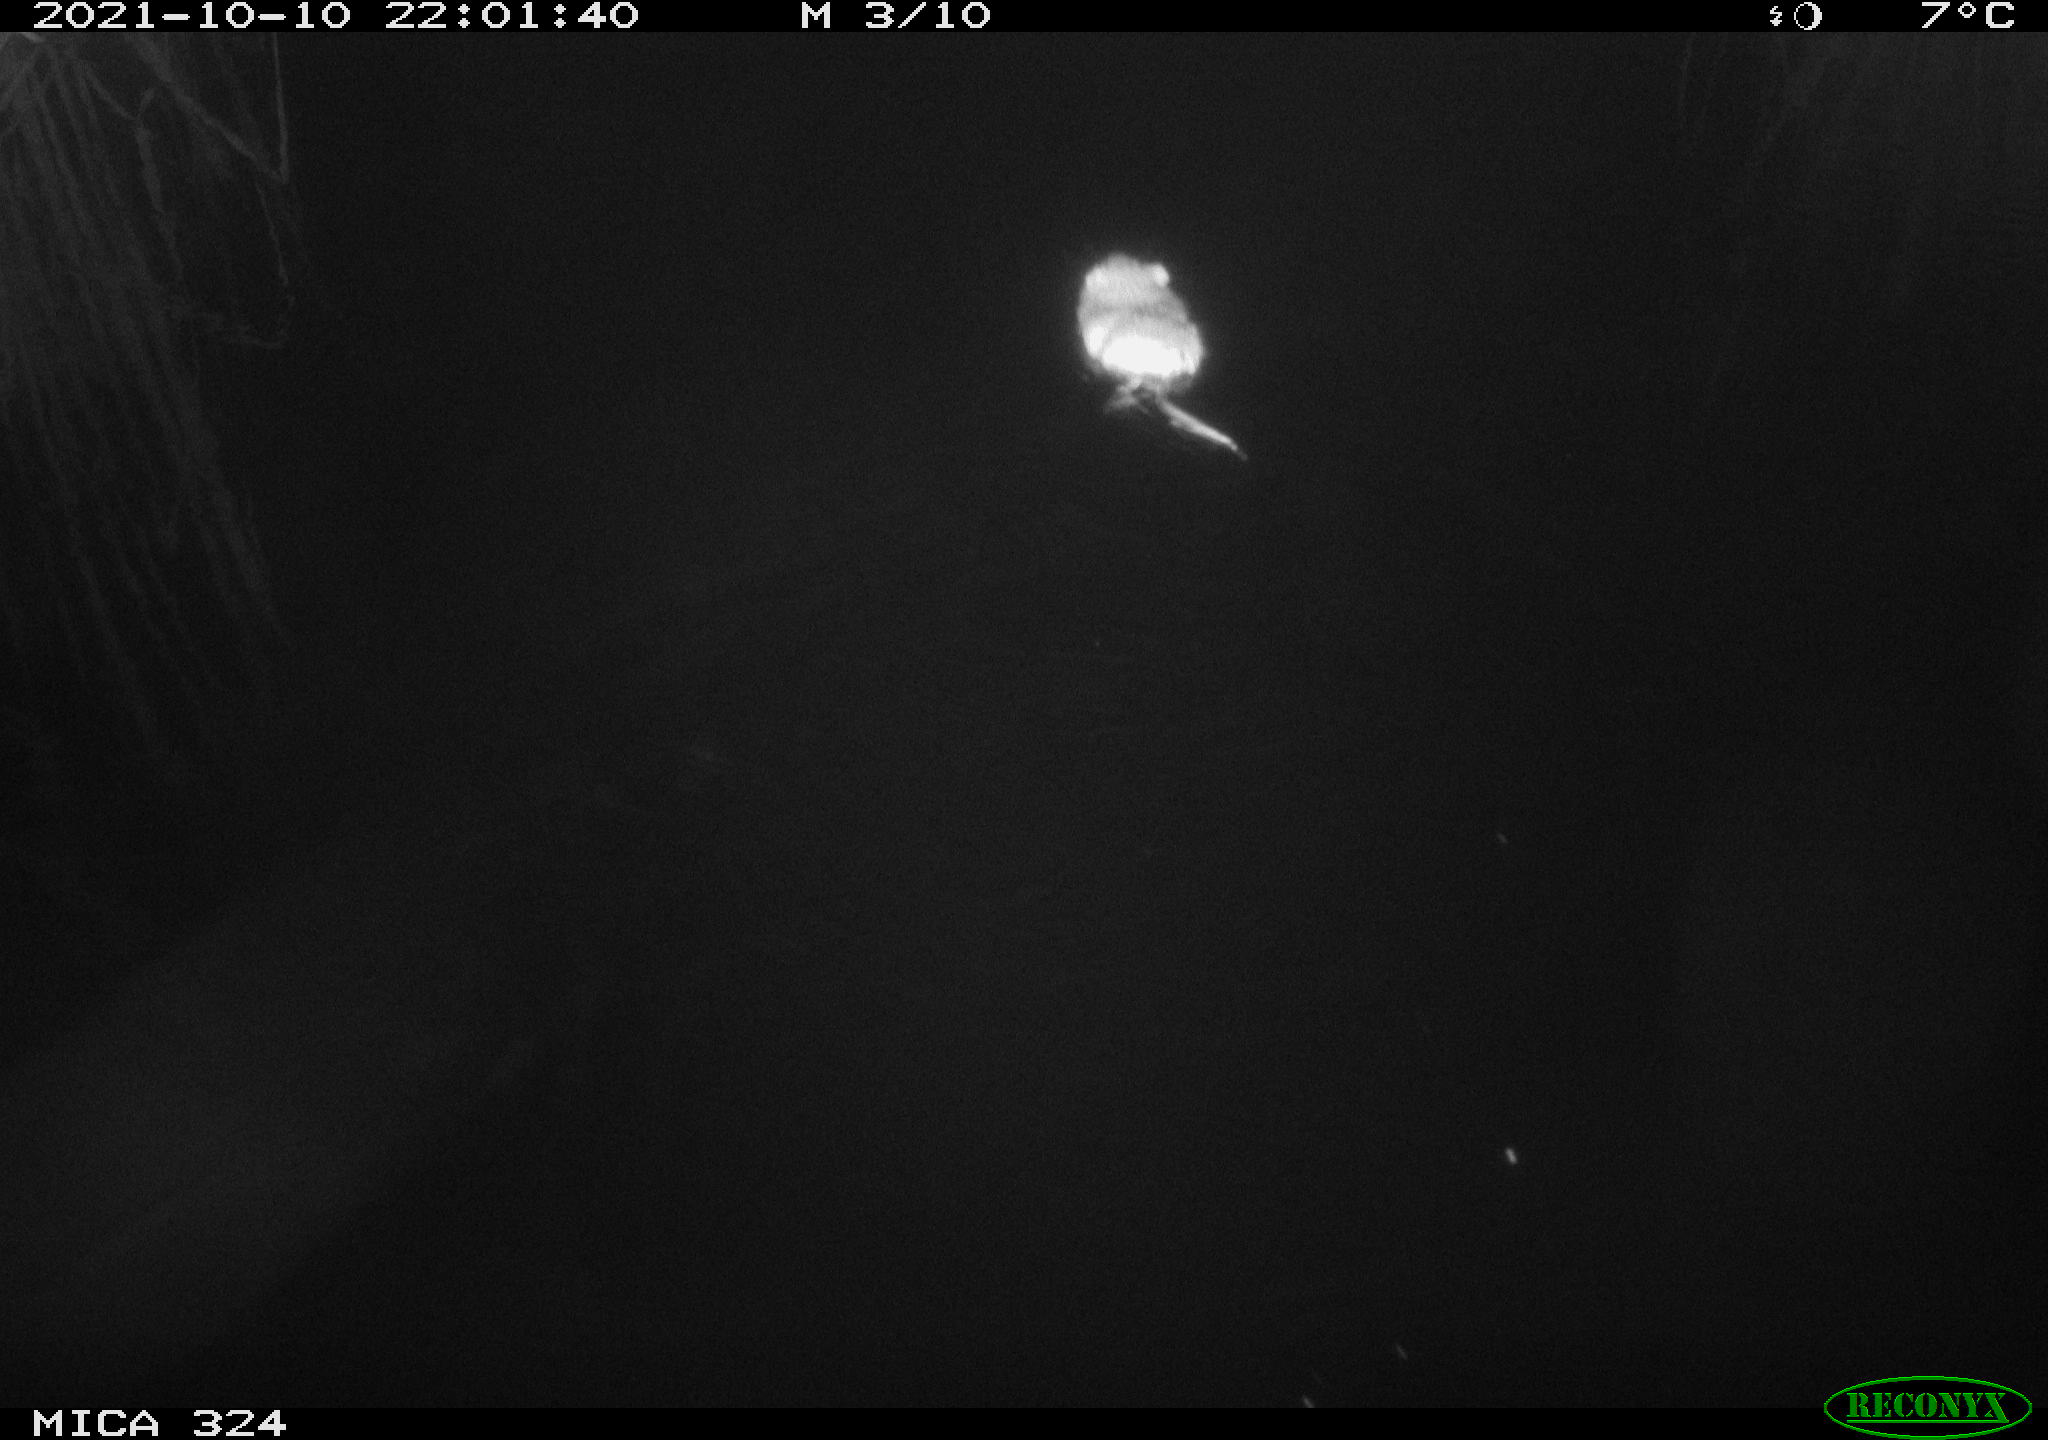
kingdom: Animalia
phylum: Chordata
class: Mammalia
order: Rodentia
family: Cricetidae
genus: Ondatra
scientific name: Ondatra zibethicus
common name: Muskrat
